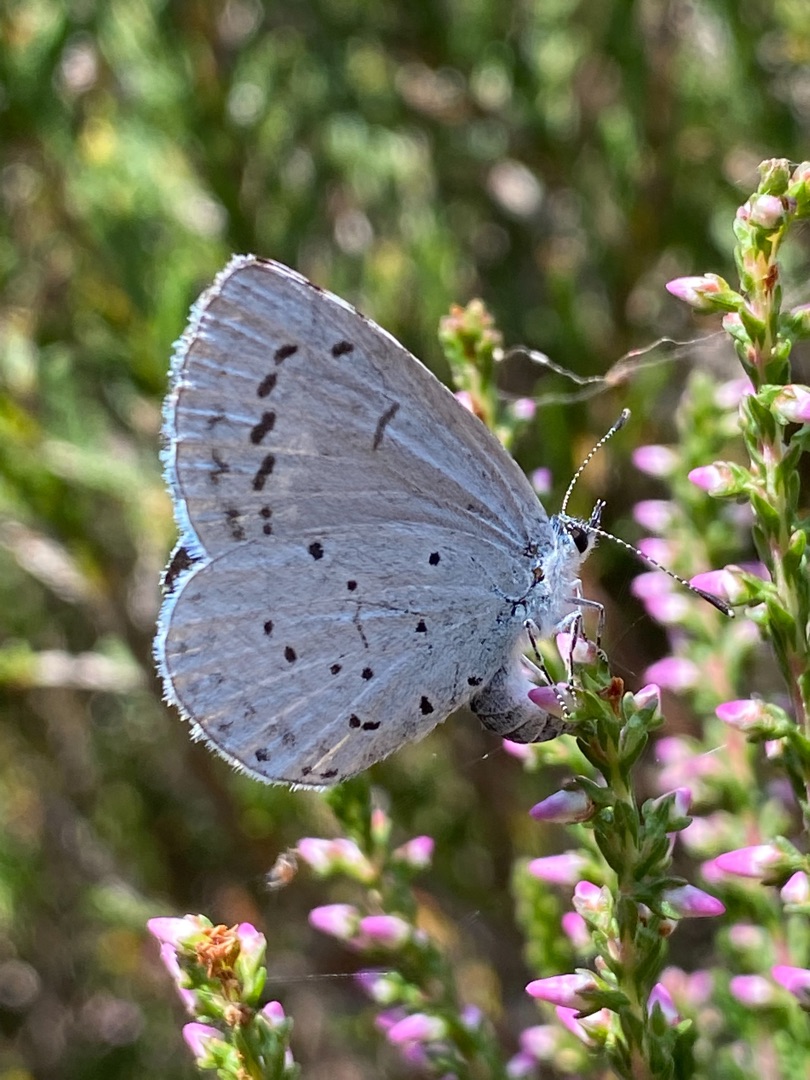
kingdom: Animalia
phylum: Arthropoda
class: Insecta
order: Lepidoptera
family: Lycaenidae
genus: Celastrina
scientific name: Celastrina argiolus
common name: Skovblåfugl
